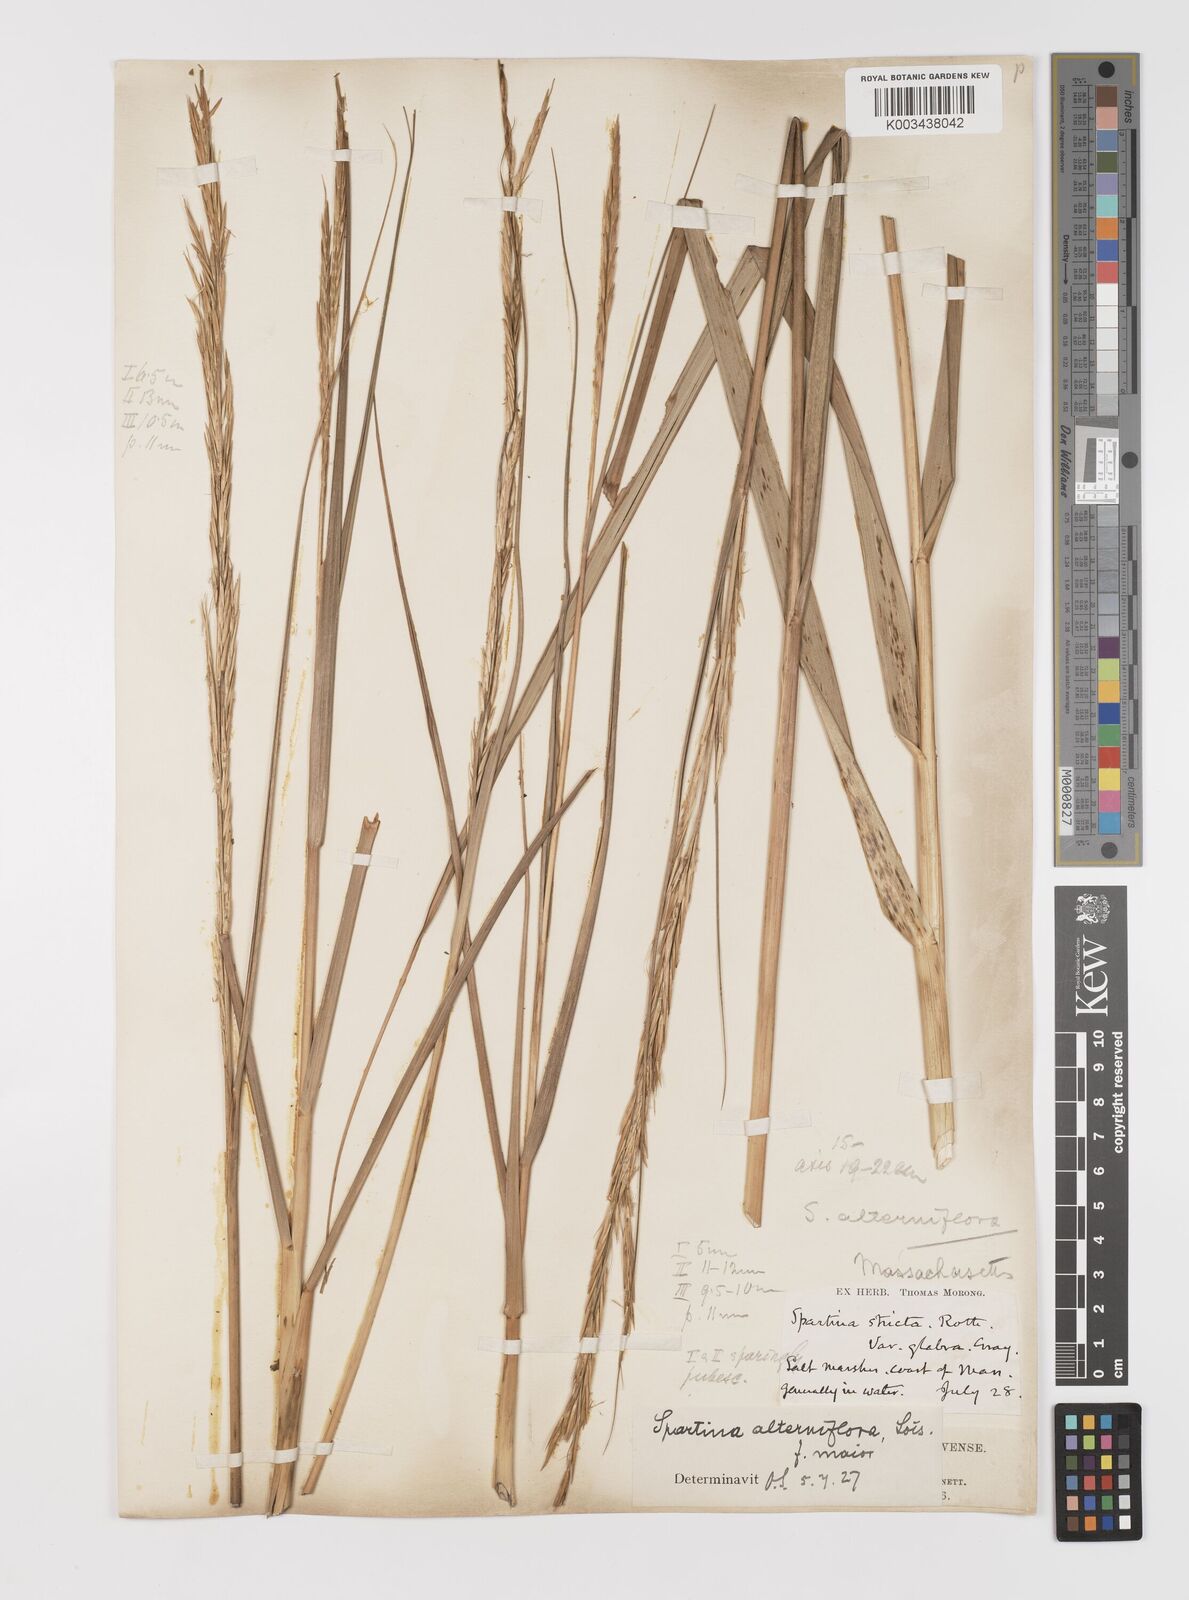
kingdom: Plantae
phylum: Tracheophyta
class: Liliopsida
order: Poales
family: Poaceae
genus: Sporobolus
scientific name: Sporobolus alterniflorus
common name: Atlantic cordgrass
